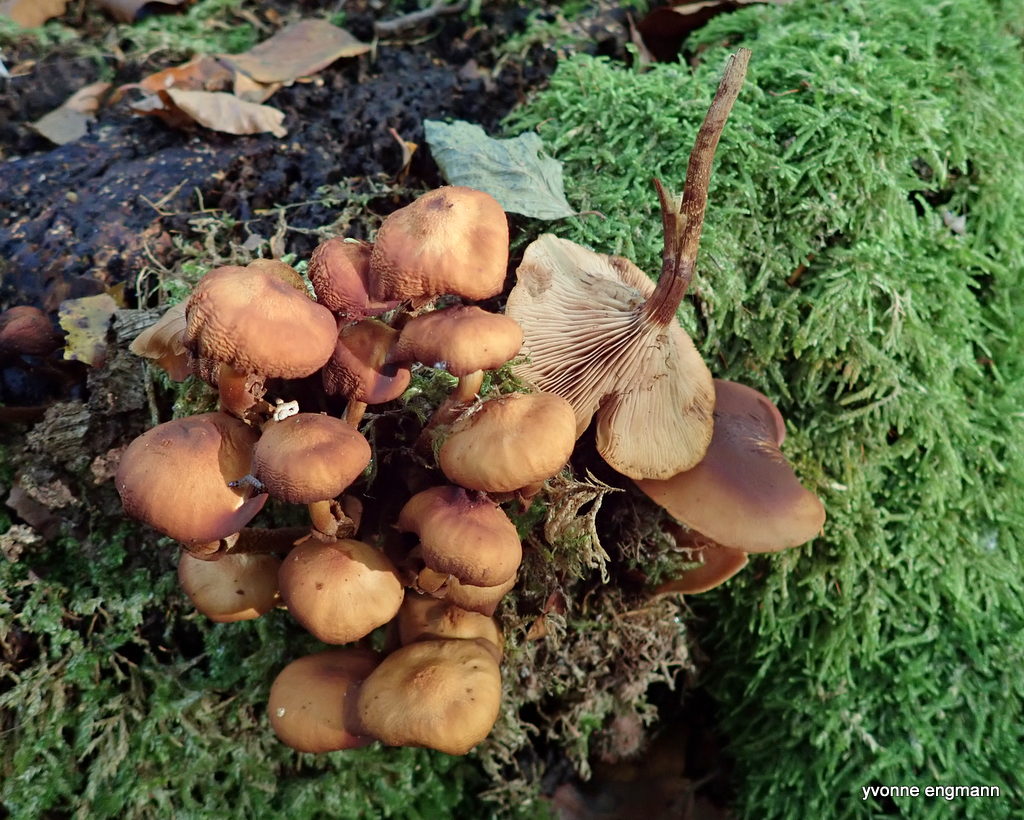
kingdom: Fungi
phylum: Basidiomycota
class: Agaricomycetes
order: Agaricales
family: Strophariaceae
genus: Kuehneromyces
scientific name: Kuehneromyces mutabilis
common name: foranderlig skælhat
